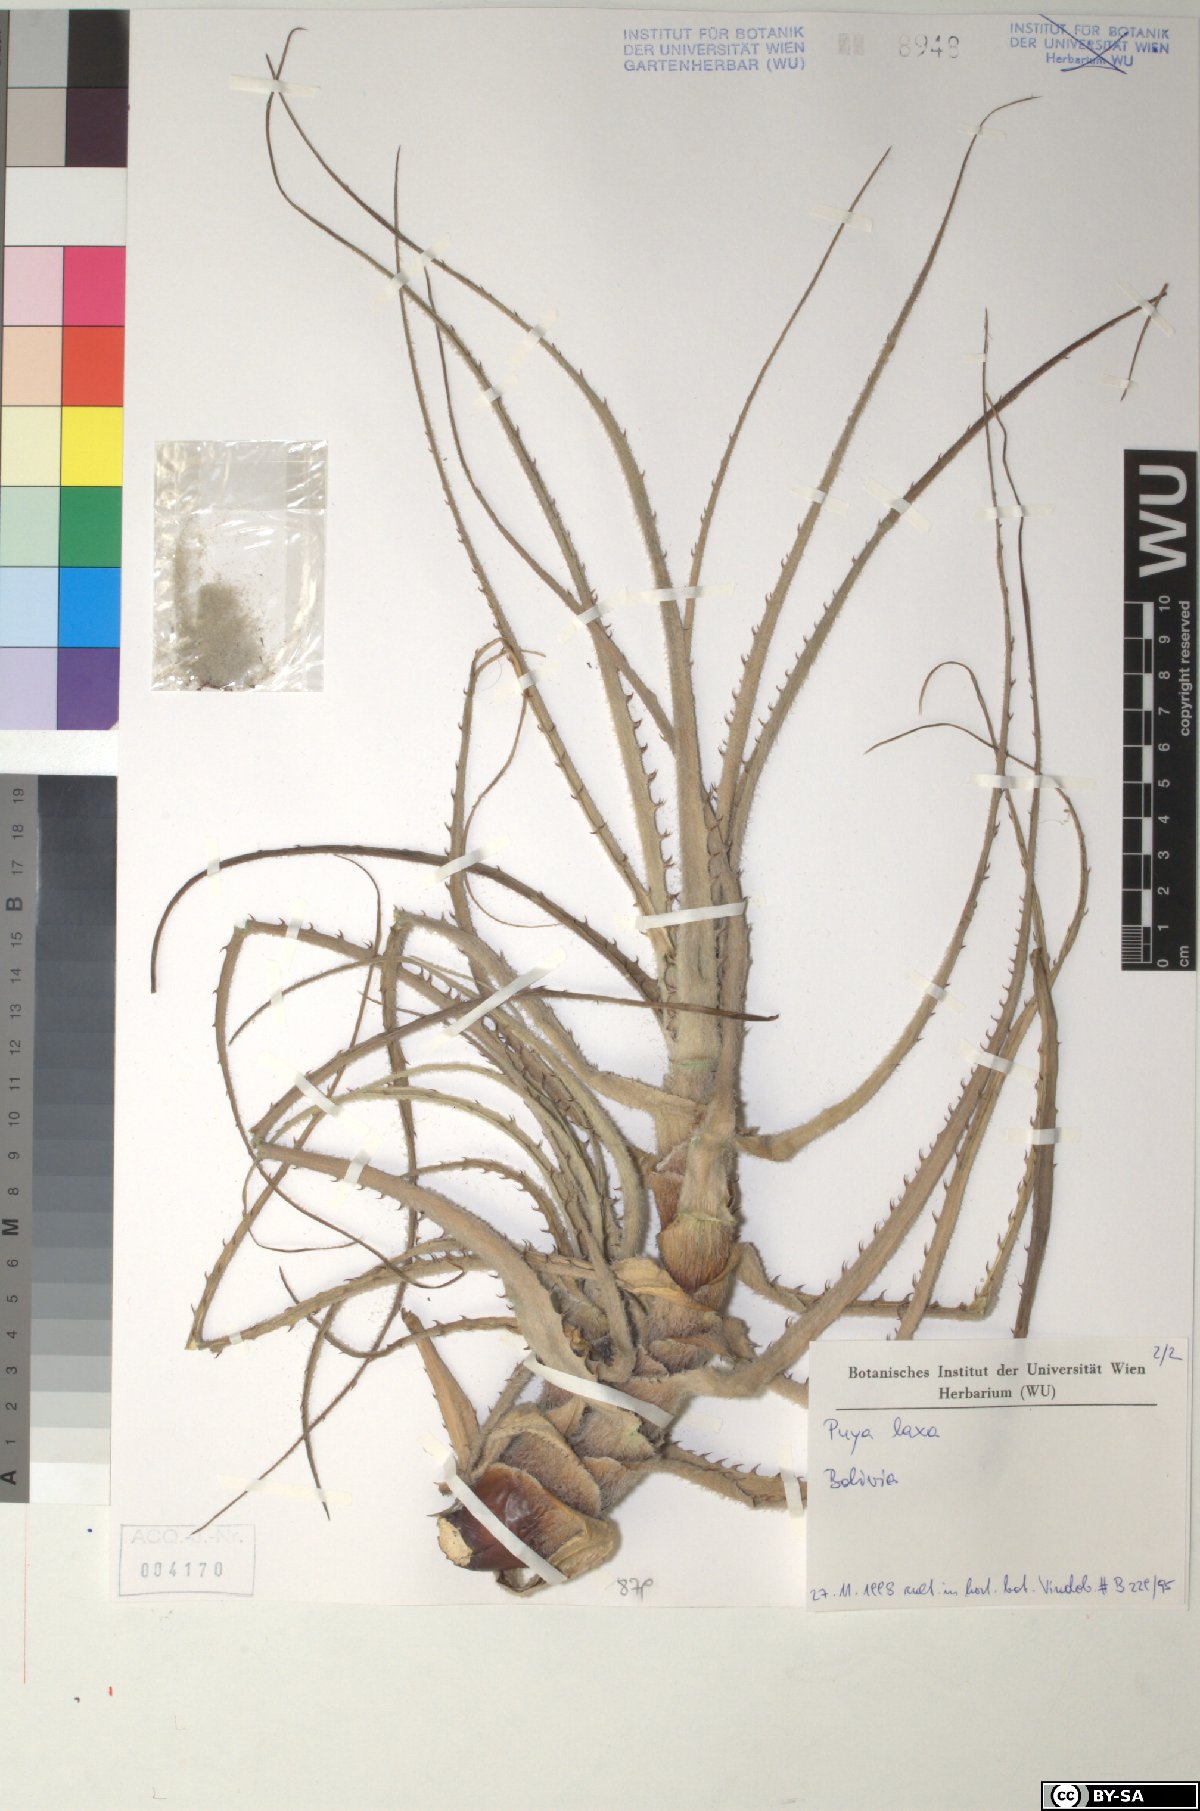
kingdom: Plantae
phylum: Tracheophyta
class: Liliopsida
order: Poales
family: Bromeliaceae
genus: Puya
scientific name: Puya laxa
